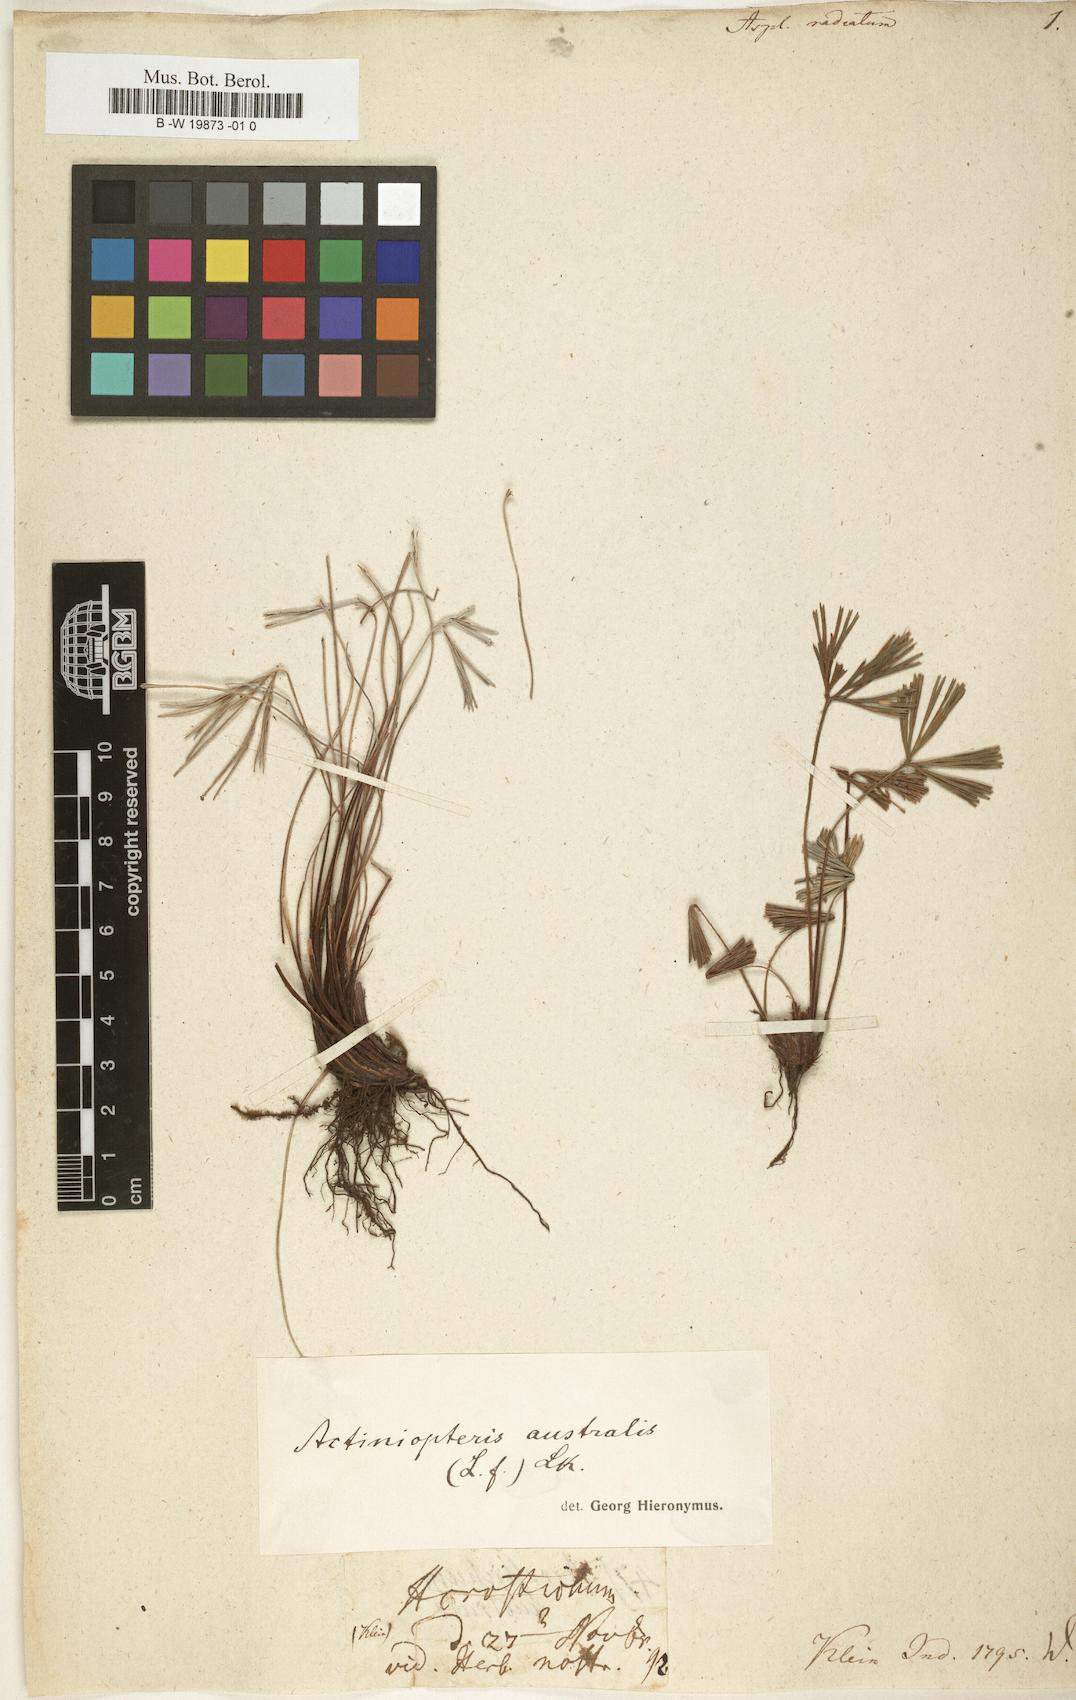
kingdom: Plantae
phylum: Tracheophyta
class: Polypodiopsida
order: Polypodiales
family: Pteridaceae
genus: Actiniopteris
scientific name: Actiniopteris radiata
